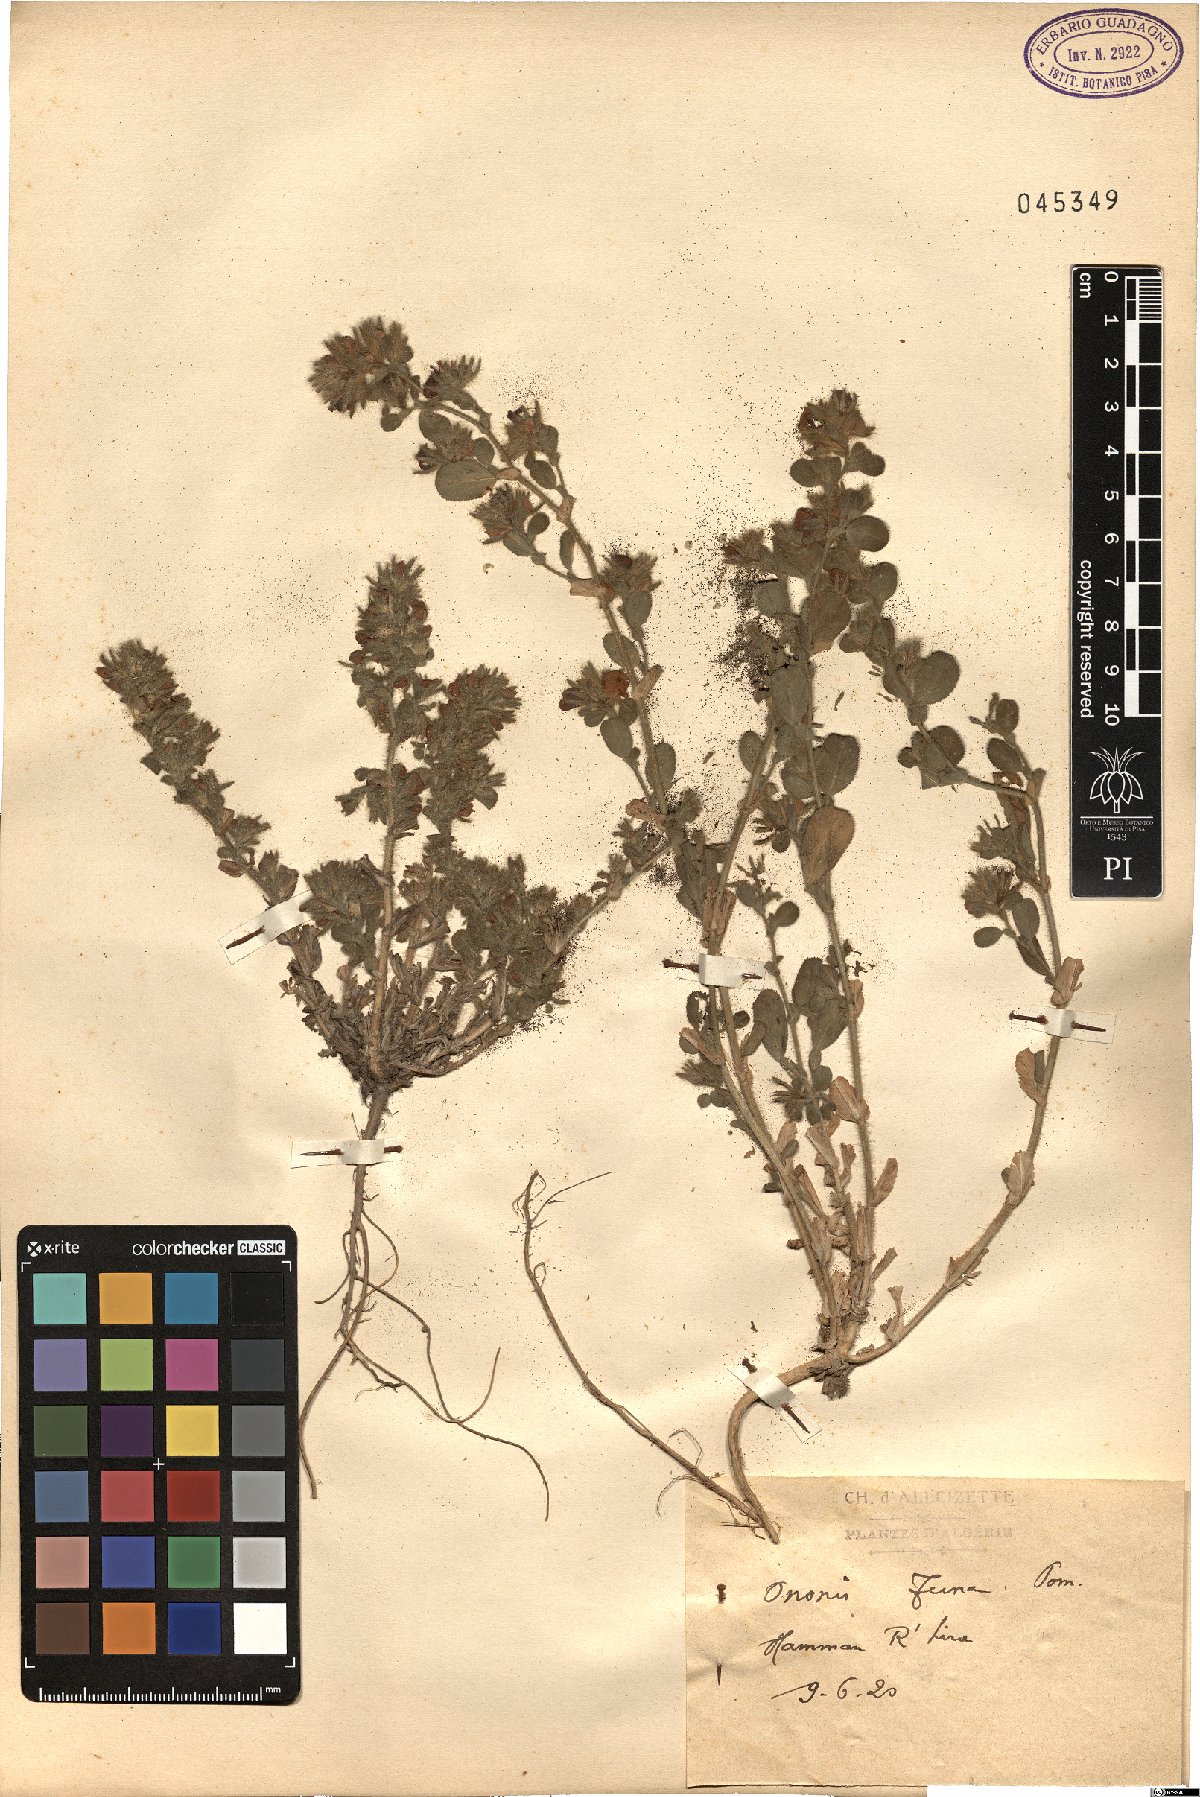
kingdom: Plantae
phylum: Tracheophyta
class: Magnoliopsida
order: Fabales
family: Fabaceae
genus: Ononis
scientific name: Ononis alba
